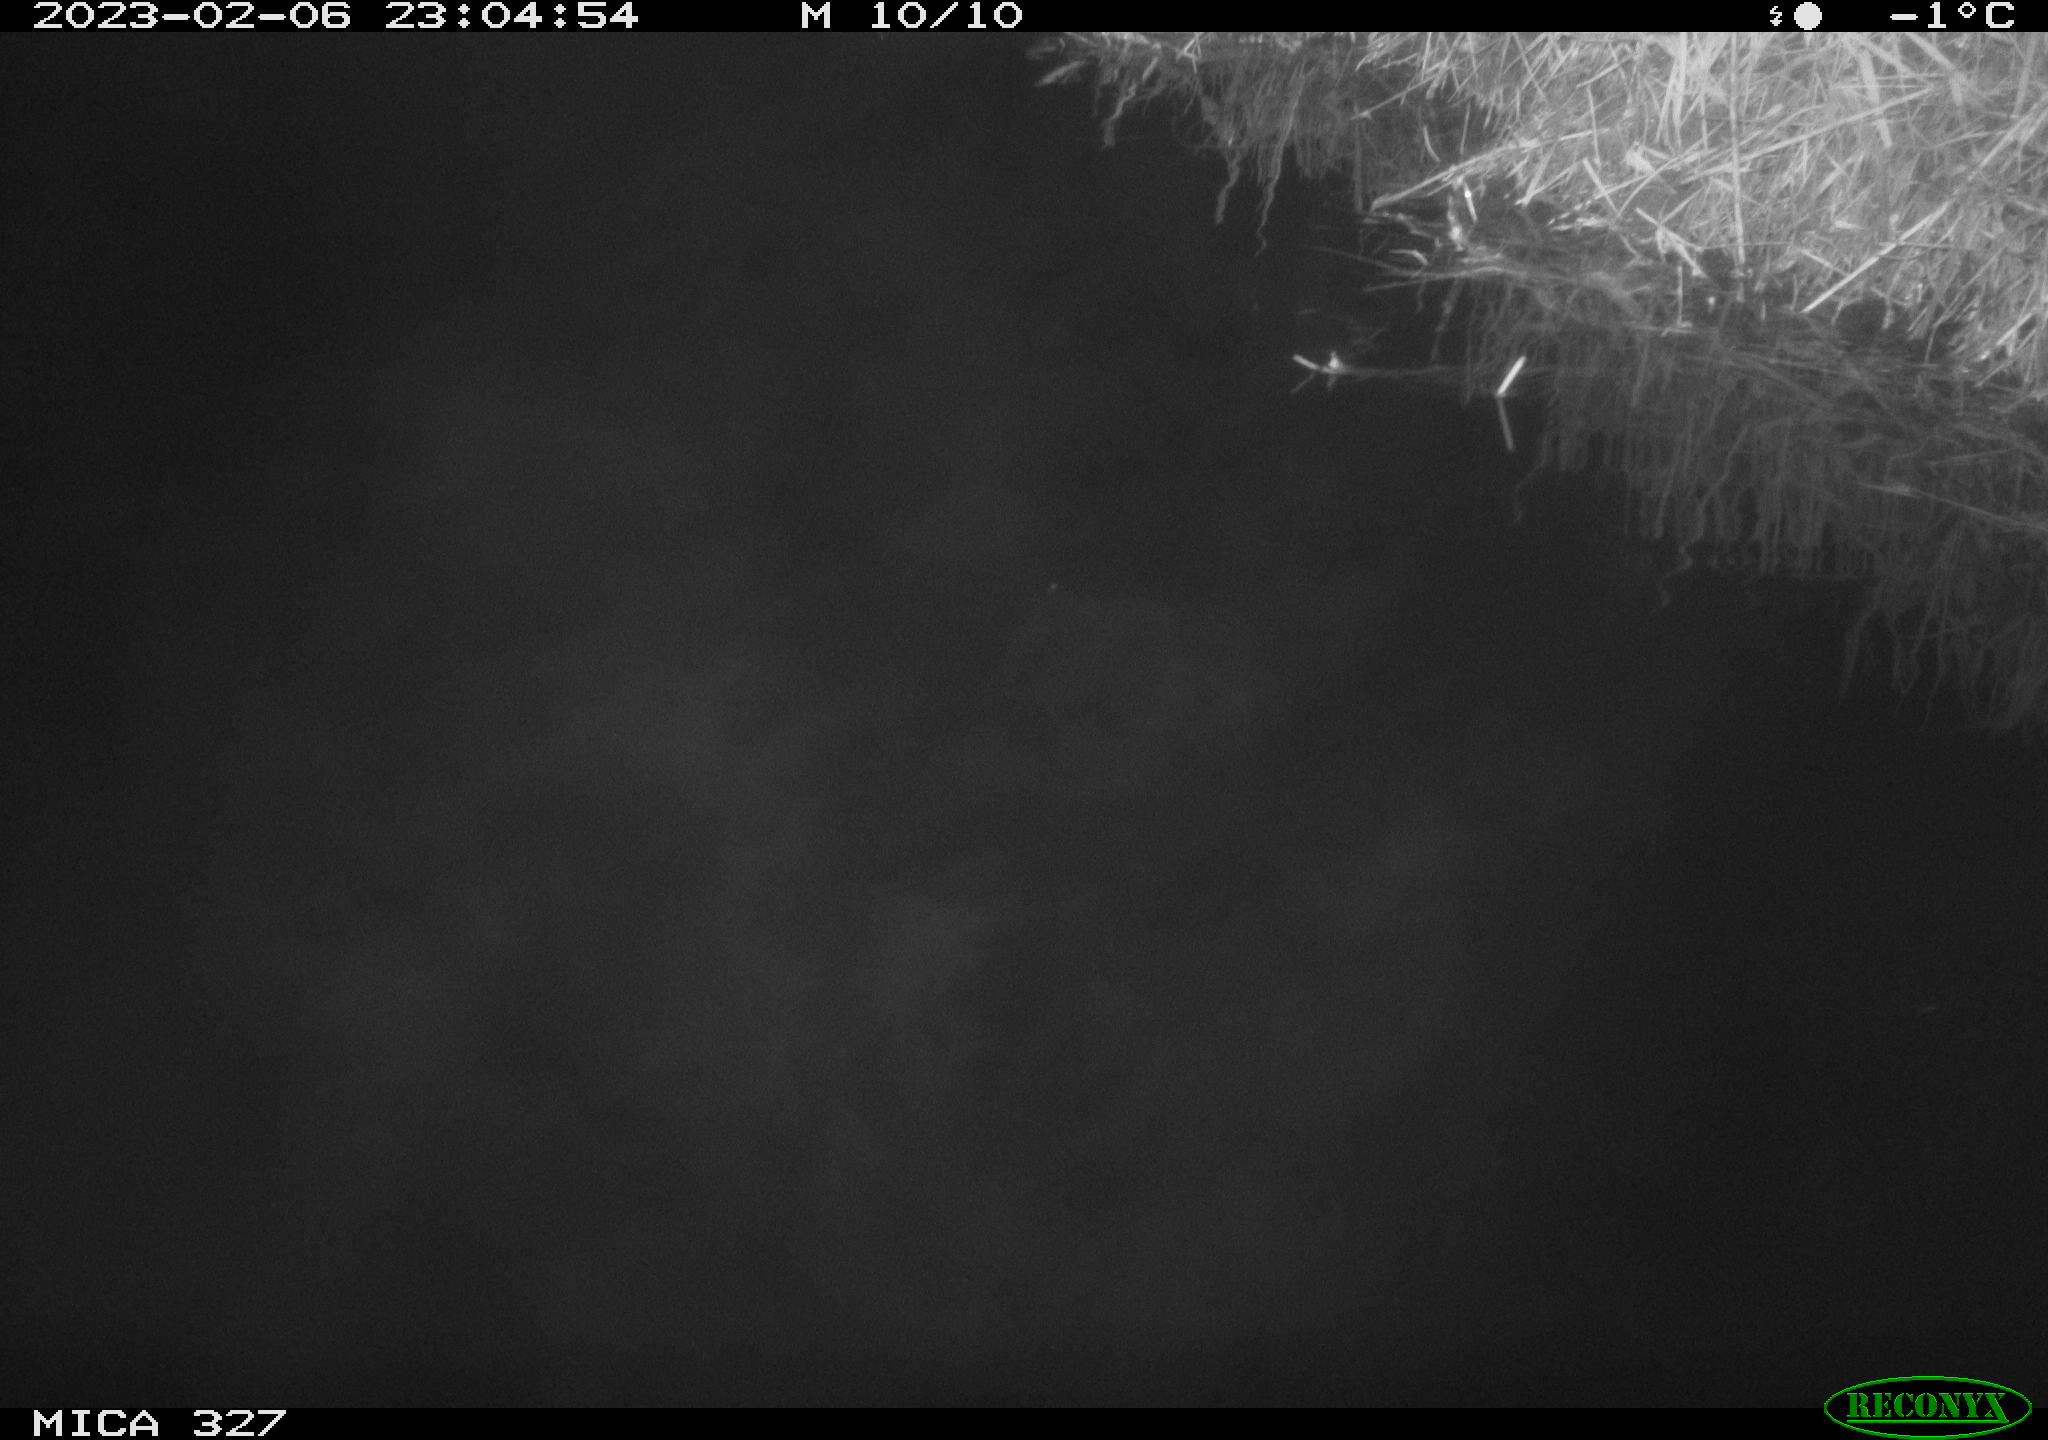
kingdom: Animalia
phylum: Chordata
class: Mammalia
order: Rodentia
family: Cricetidae
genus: Ondatra
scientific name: Ondatra zibethicus
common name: Muskrat
